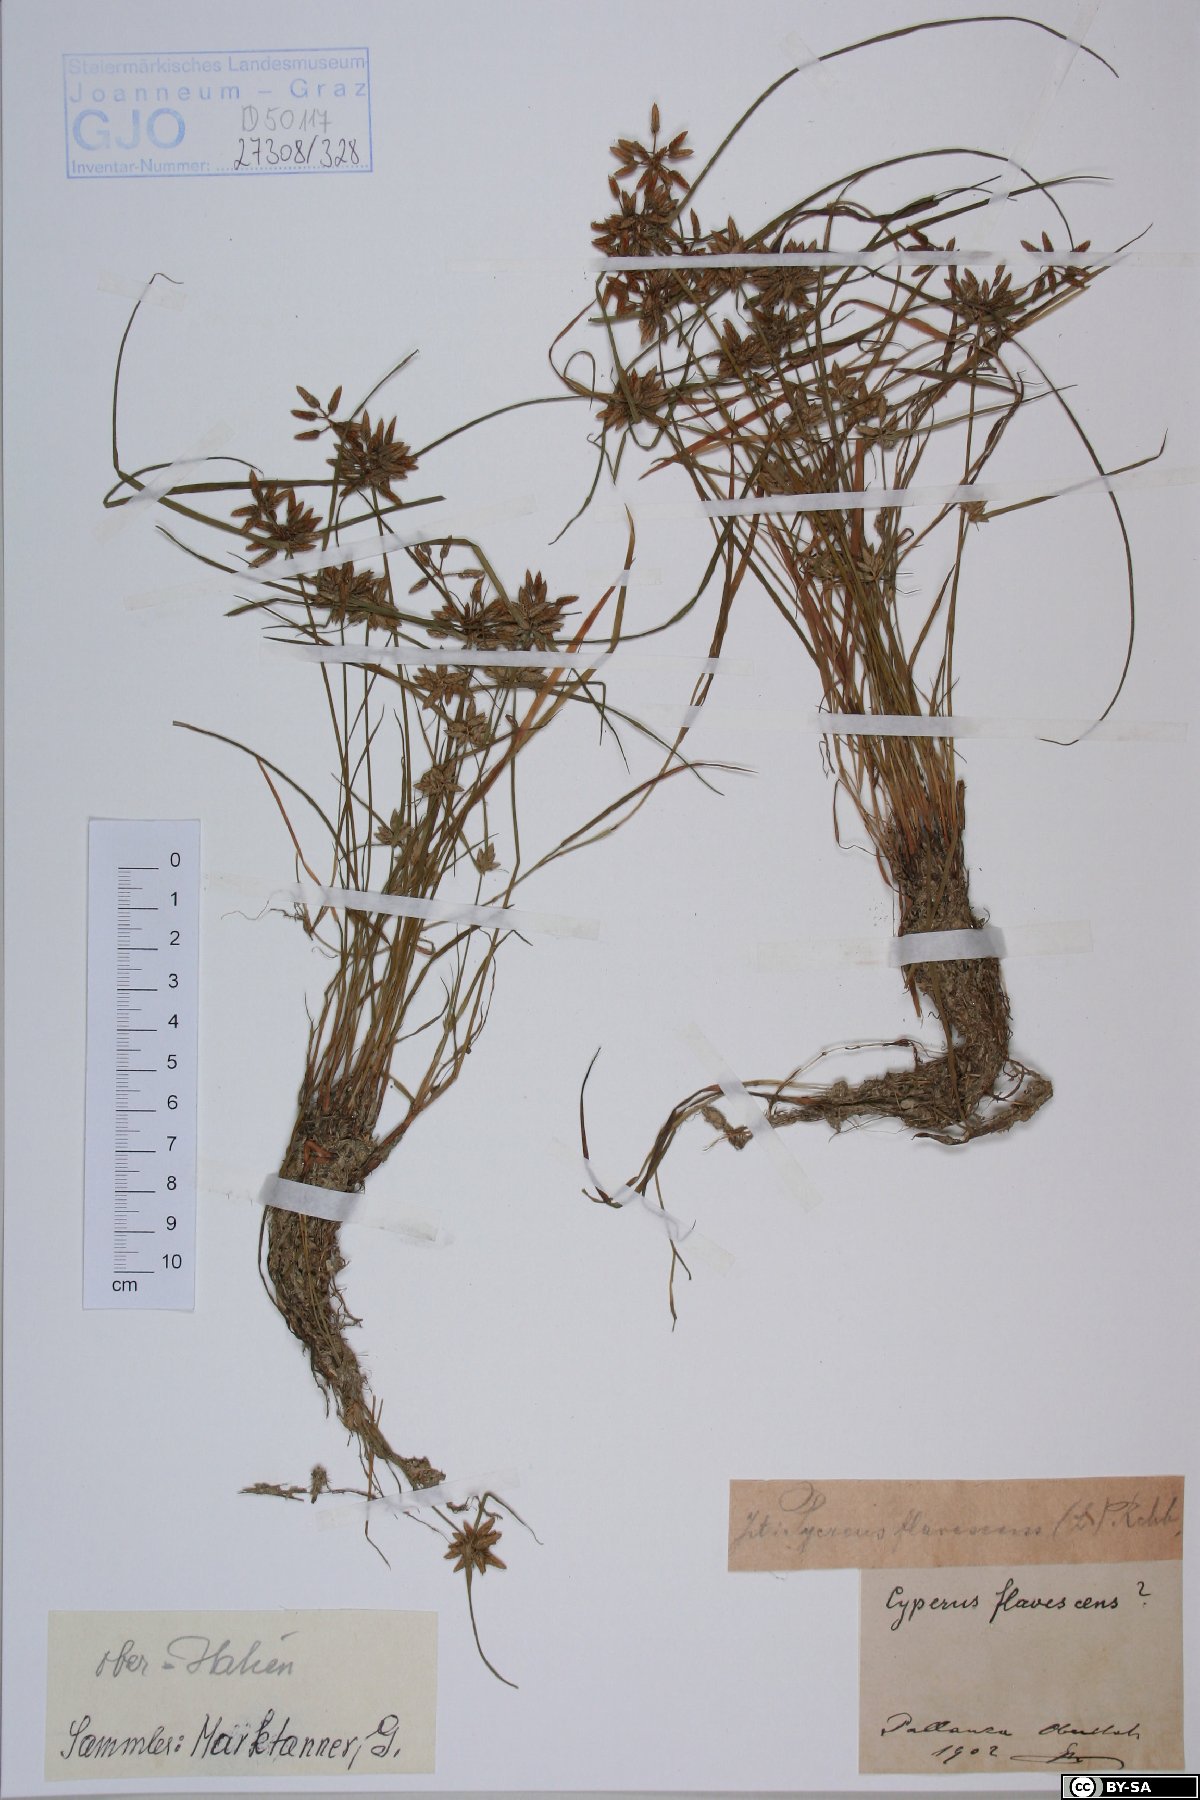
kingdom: Plantae
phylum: Tracheophyta
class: Liliopsida
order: Poales
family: Cyperaceae
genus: Cyperus
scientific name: Cyperus flavescens
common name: Yellow galingale
